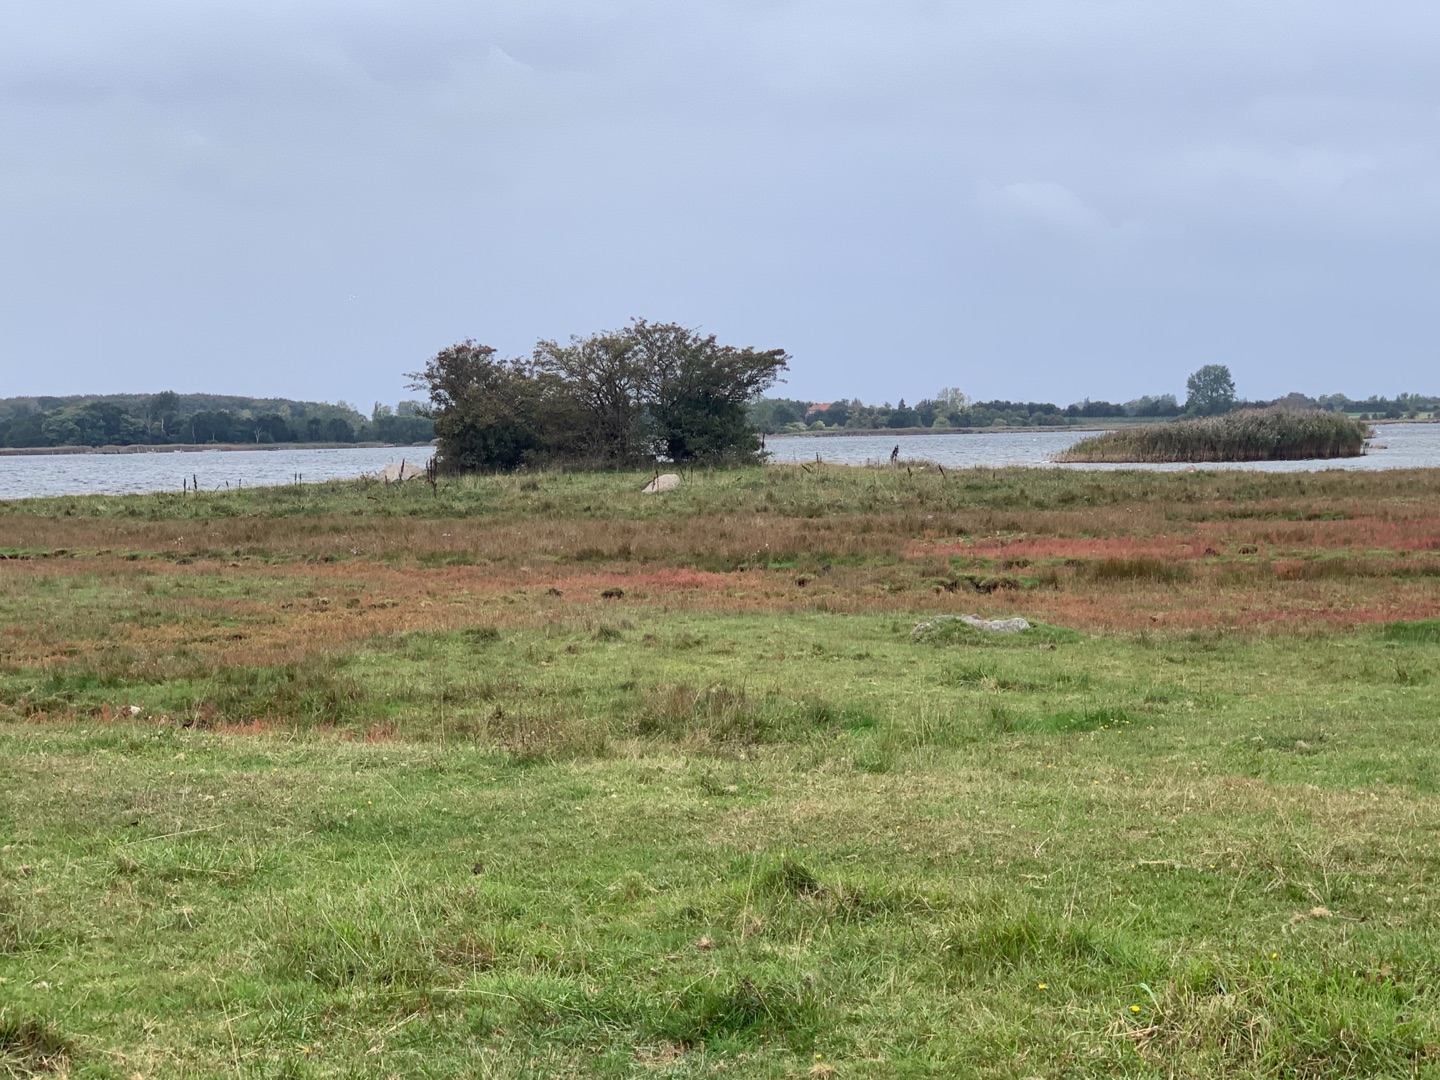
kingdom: Plantae
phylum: Tracheophyta
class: Magnoliopsida
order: Caryophyllales
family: Amaranthaceae
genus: Salicornia
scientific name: Salicornia europaea
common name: Almindelig salturt
